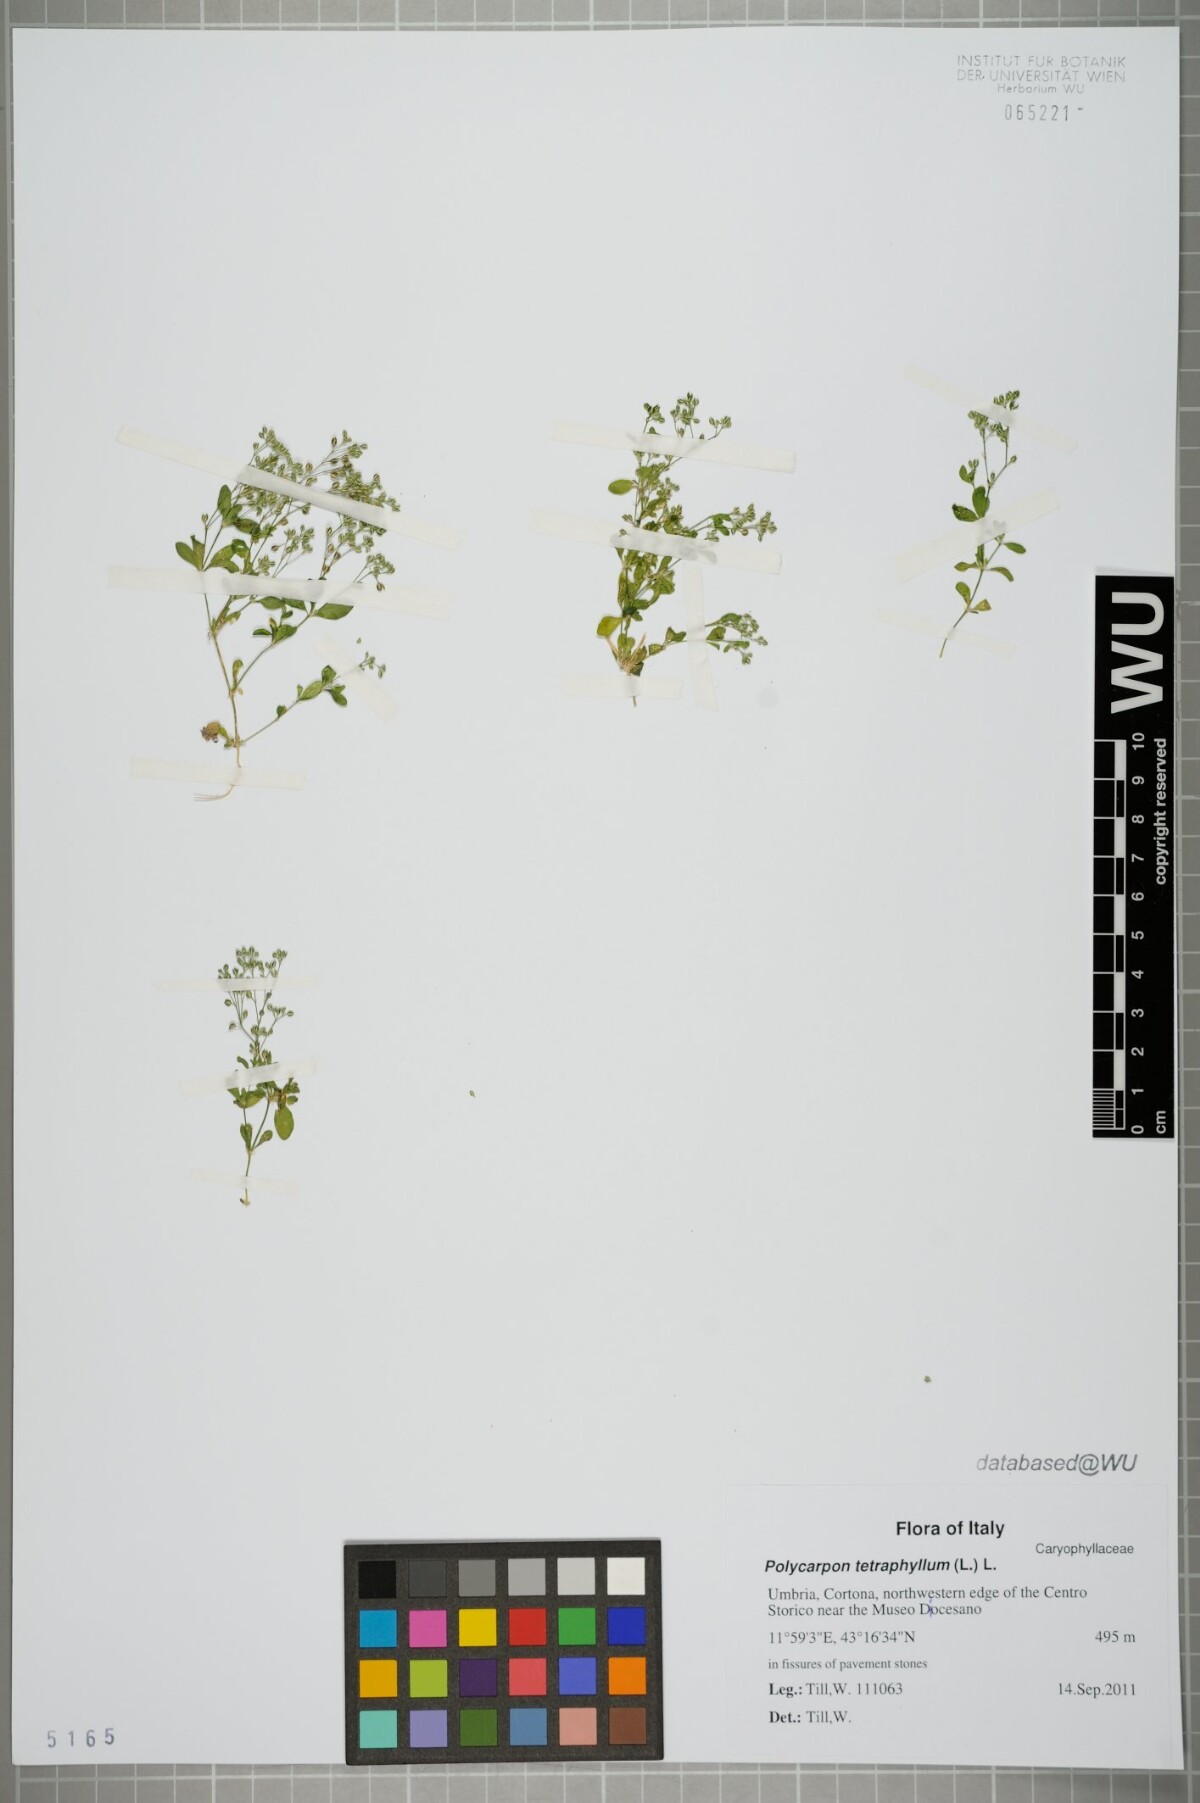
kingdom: Plantae
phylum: Tracheophyta
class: Magnoliopsida
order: Caryophyllales
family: Caryophyllaceae
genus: Polycarpon
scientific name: Polycarpon tetraphyllum
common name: Four-leaved all-seed
